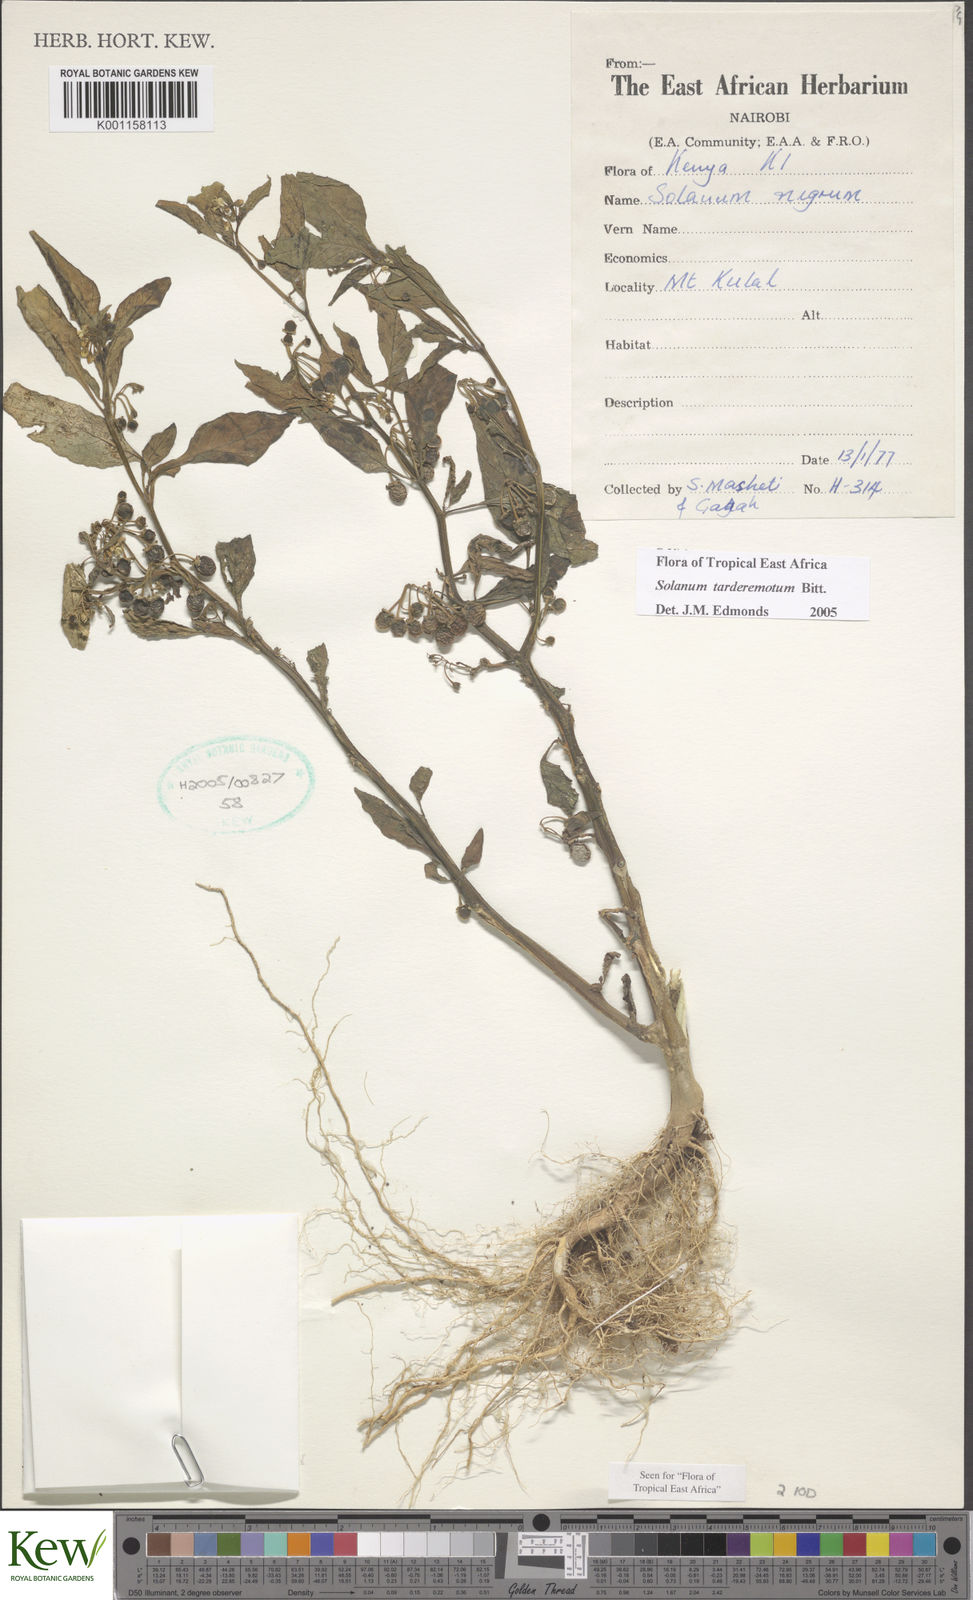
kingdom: Plantae
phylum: Tracheophyta
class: Magnoliopsida
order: Solanales
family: Solanaceae
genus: Solanum
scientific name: Solanum tarderemotum
